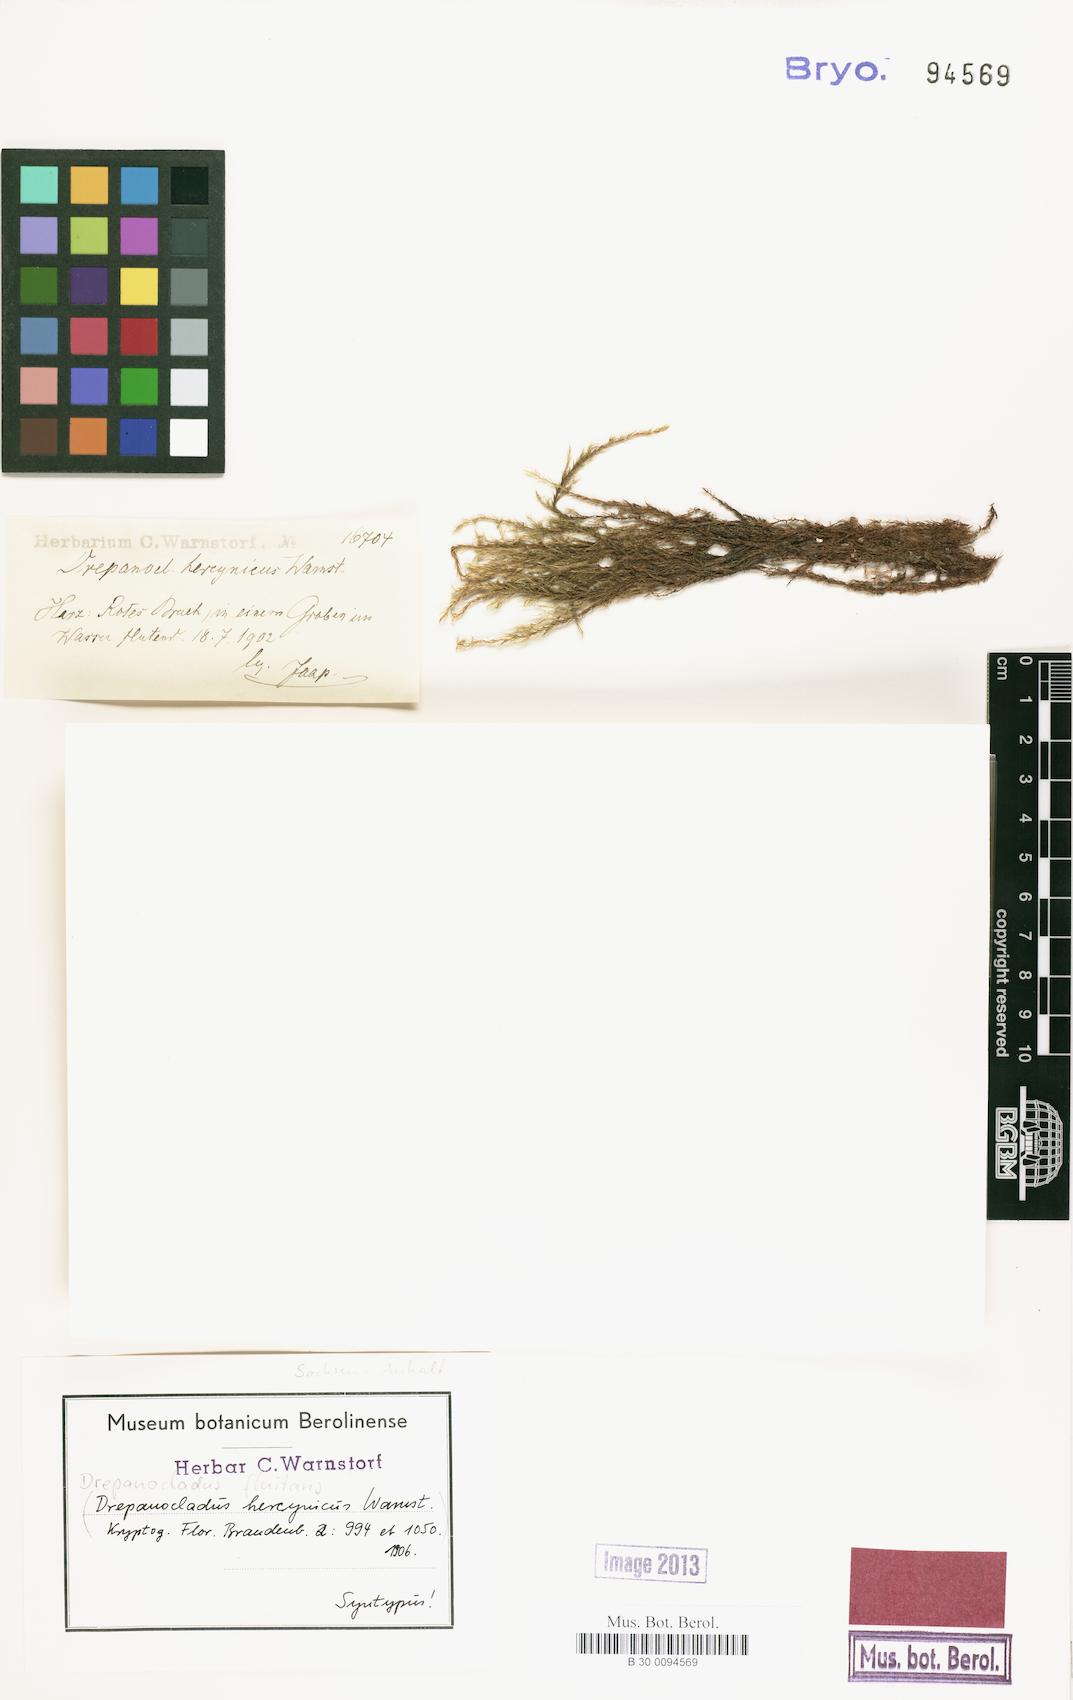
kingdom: Plantae
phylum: Bryophyta
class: Bryopsida
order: Hypnales
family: Calliergonaceae
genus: Warnstorfia
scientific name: Warnstorfia fluitans
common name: Floating hook moss
